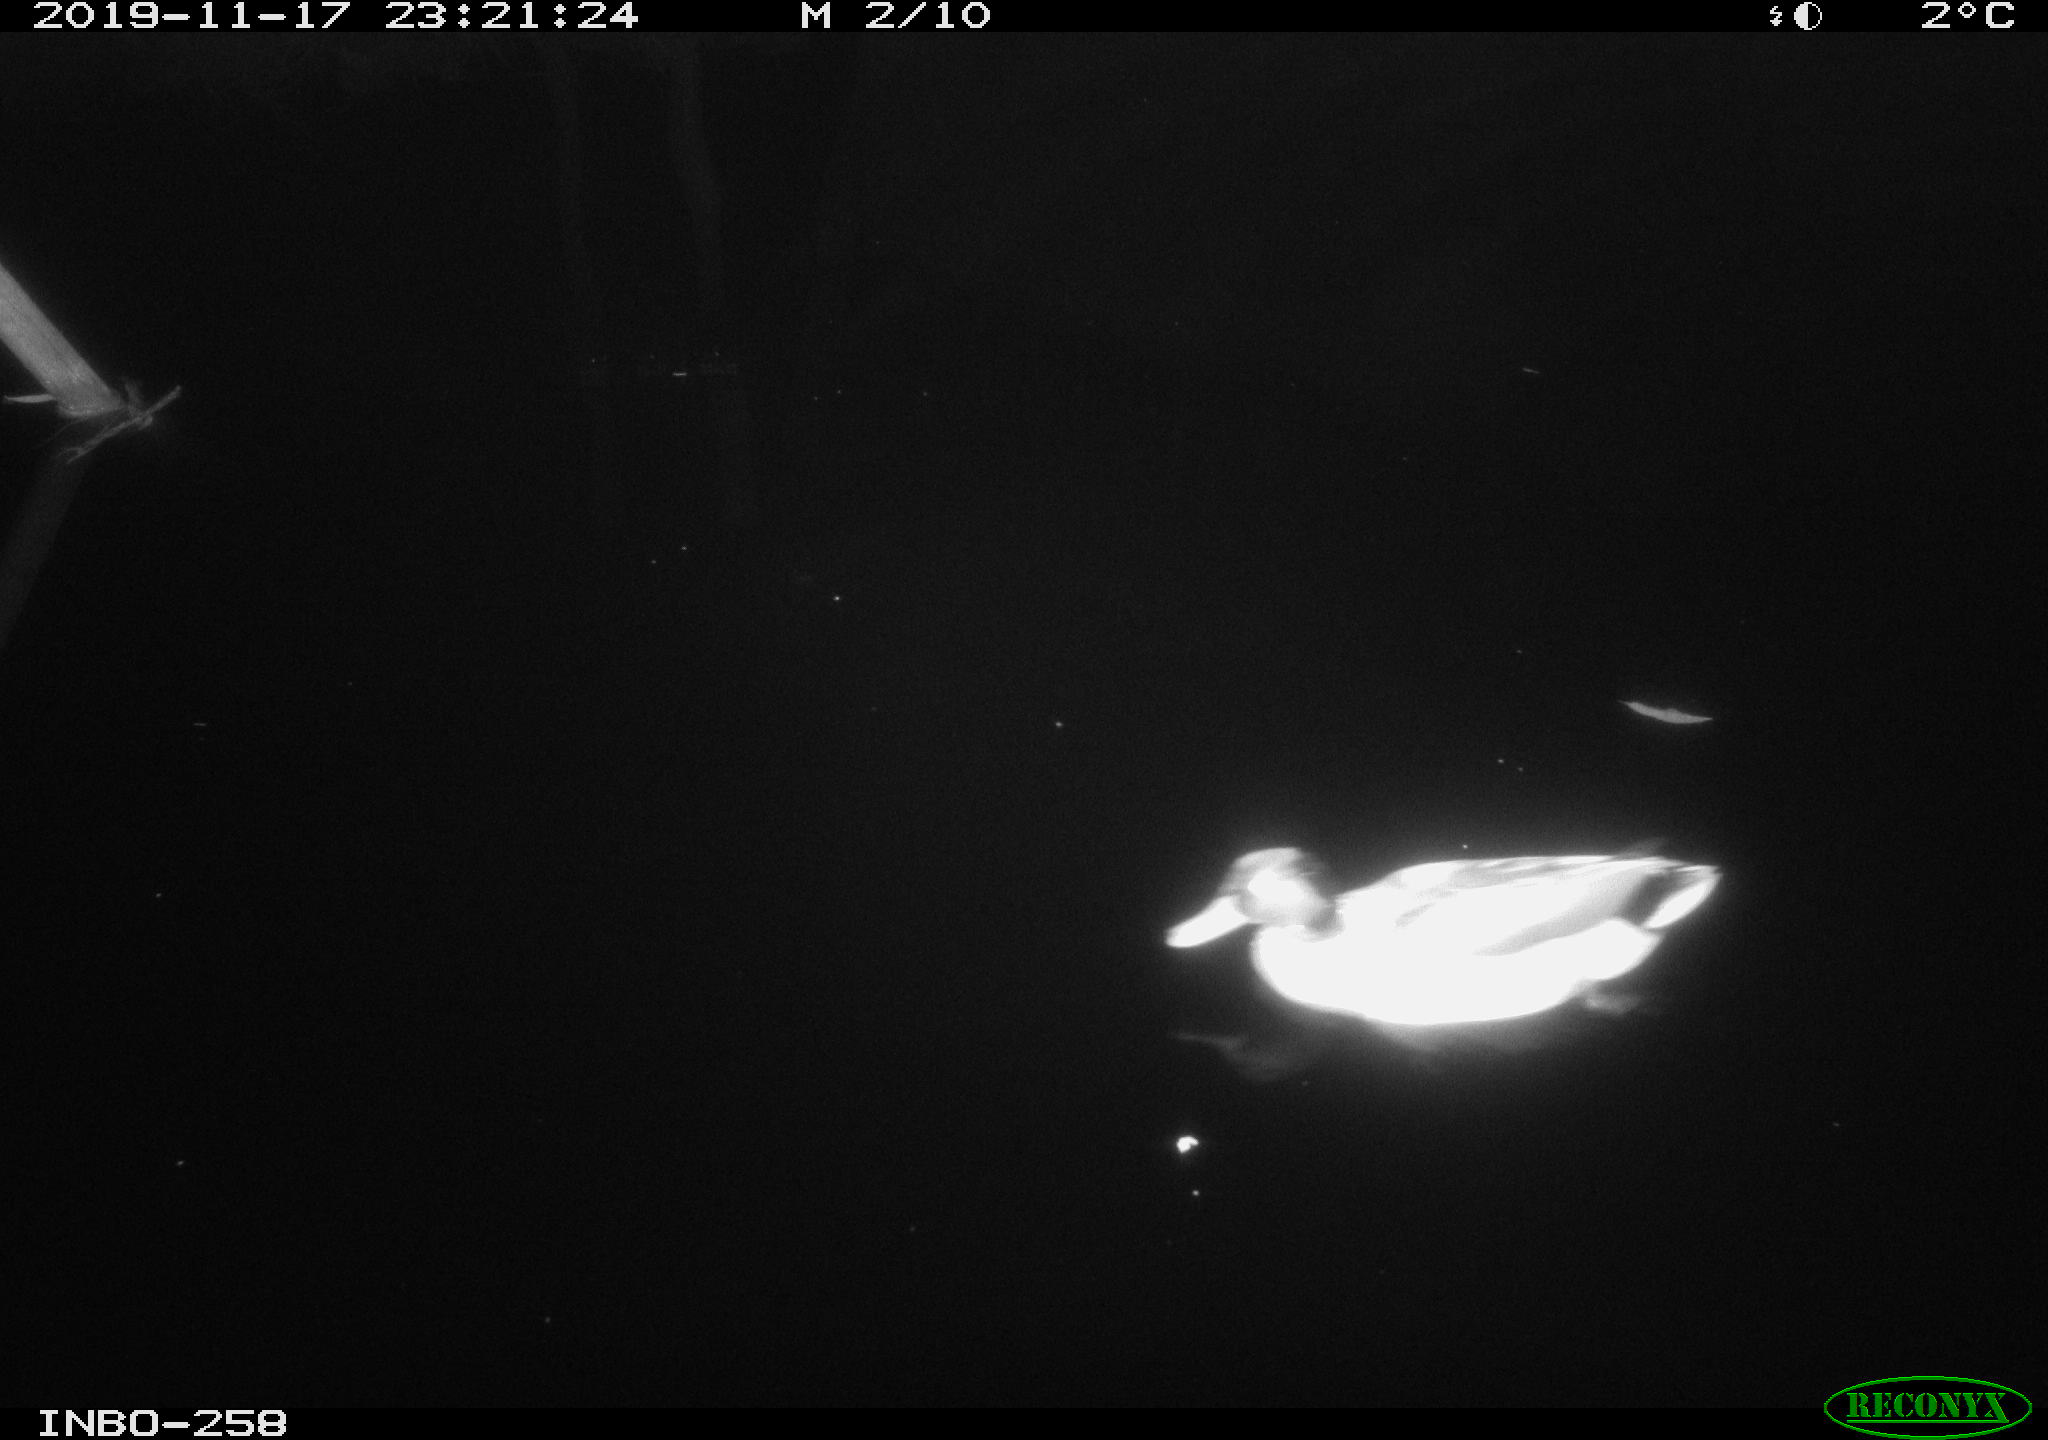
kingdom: Animalia
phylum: Chordata
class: Aves
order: Anseriformes
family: Anatidae
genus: Anas
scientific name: Anas platyrhynchos
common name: Mallard
